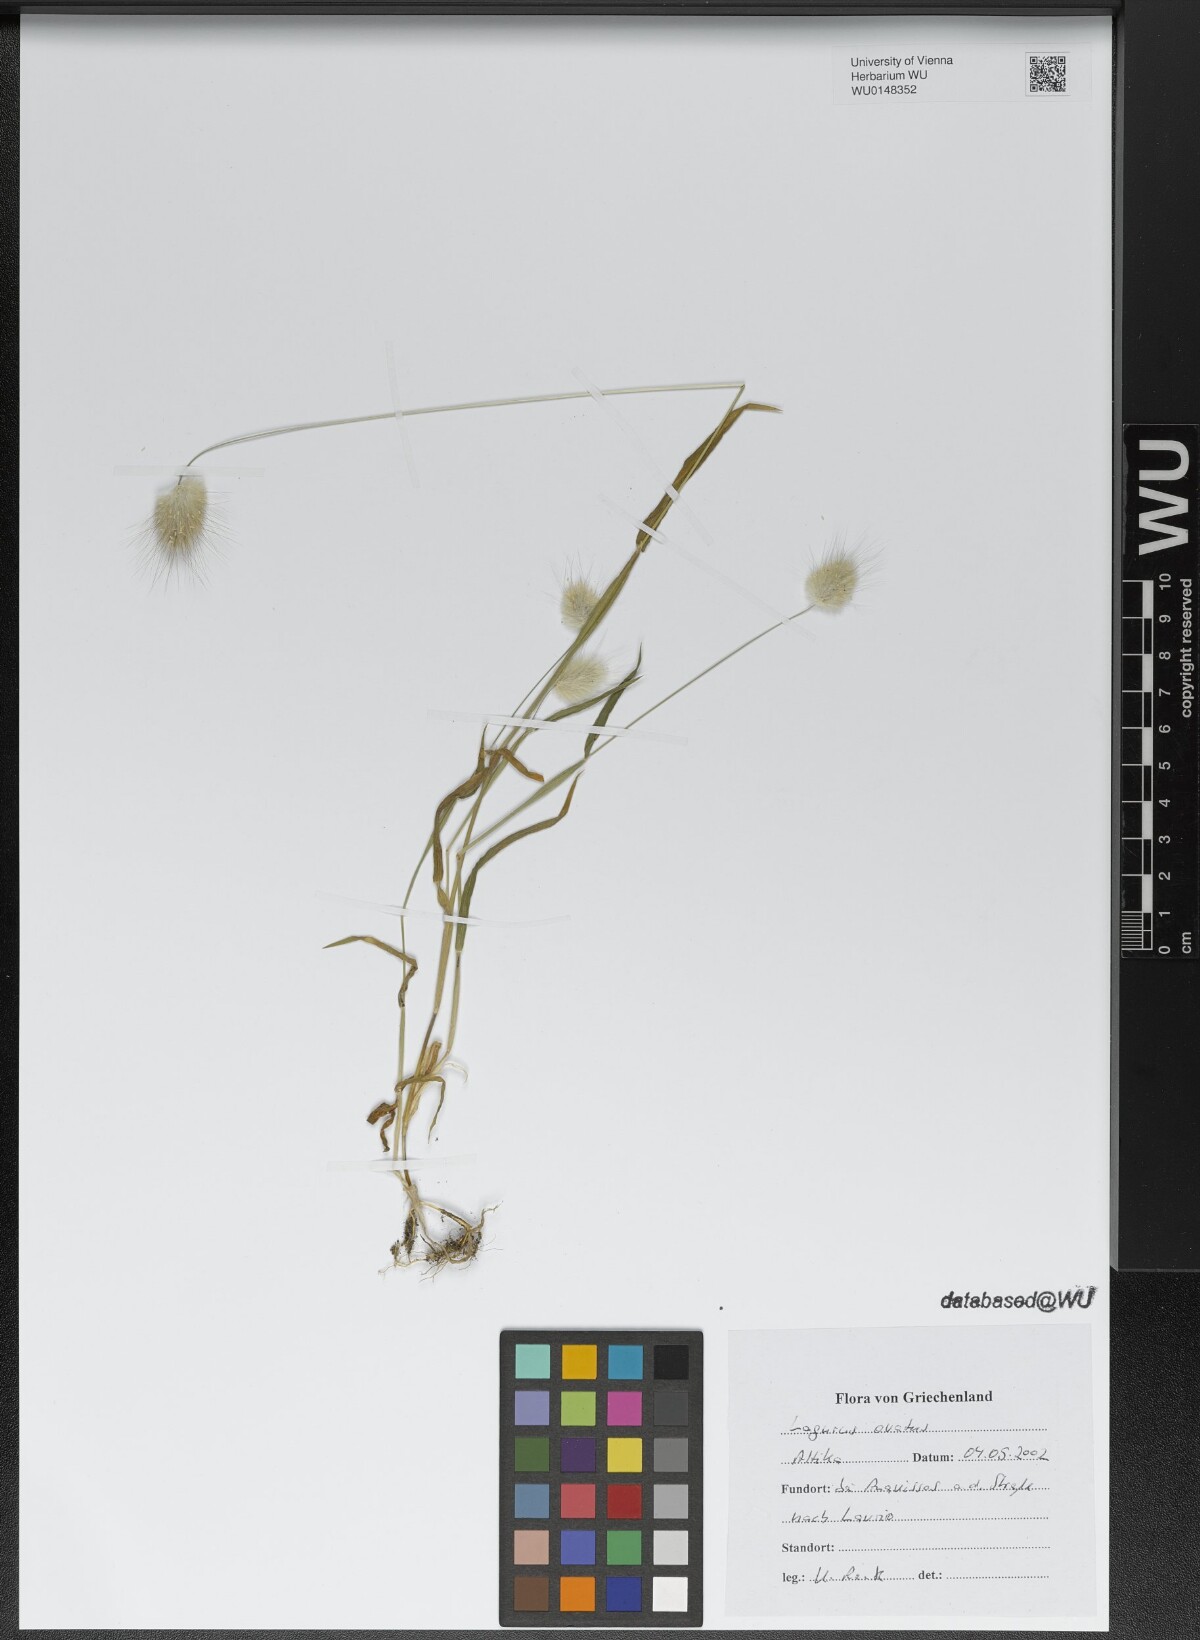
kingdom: Plantae
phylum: Tracheophyta
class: Liliopsida
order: Poales
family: Poaceae
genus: Lagurus
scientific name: Lagurus ovatus
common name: Hare's-tail
